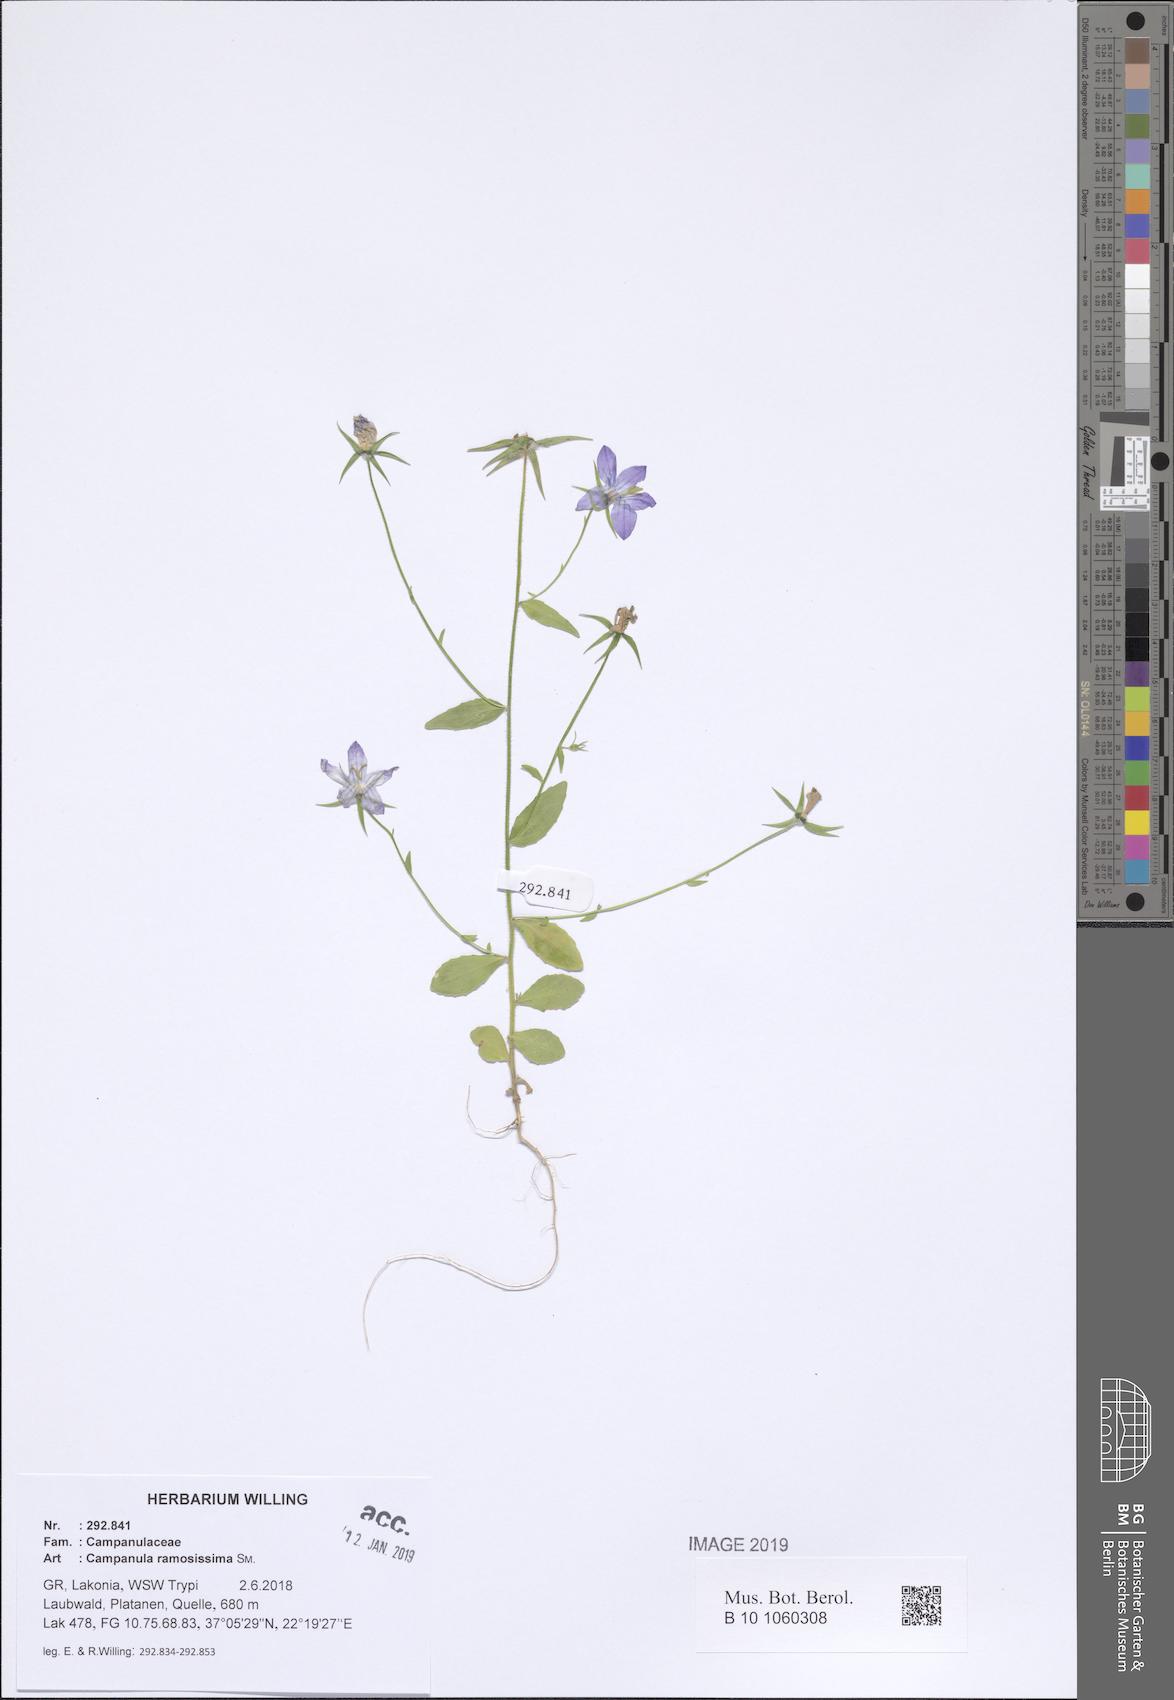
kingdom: Plantae
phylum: Tracheophyta
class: Magnoliopsida
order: Asterales
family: Campanulaceae
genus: Campanula
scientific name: Campanula ramosissima
